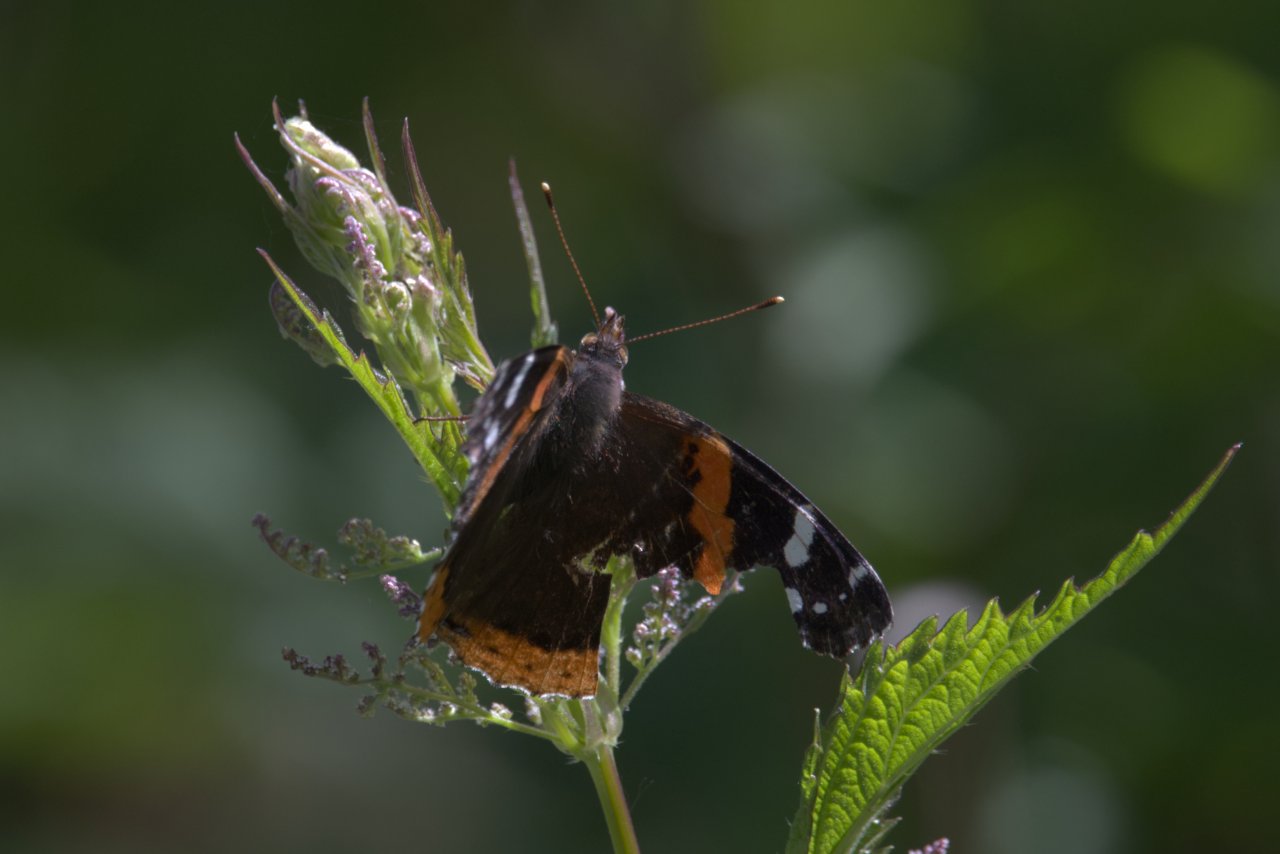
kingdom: Animalia
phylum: Arthropoda
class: Insecta
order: Lepidoptera
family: Nymphalidae
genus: Vanessa
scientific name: Vanessa atalanta
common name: Red Admiral
